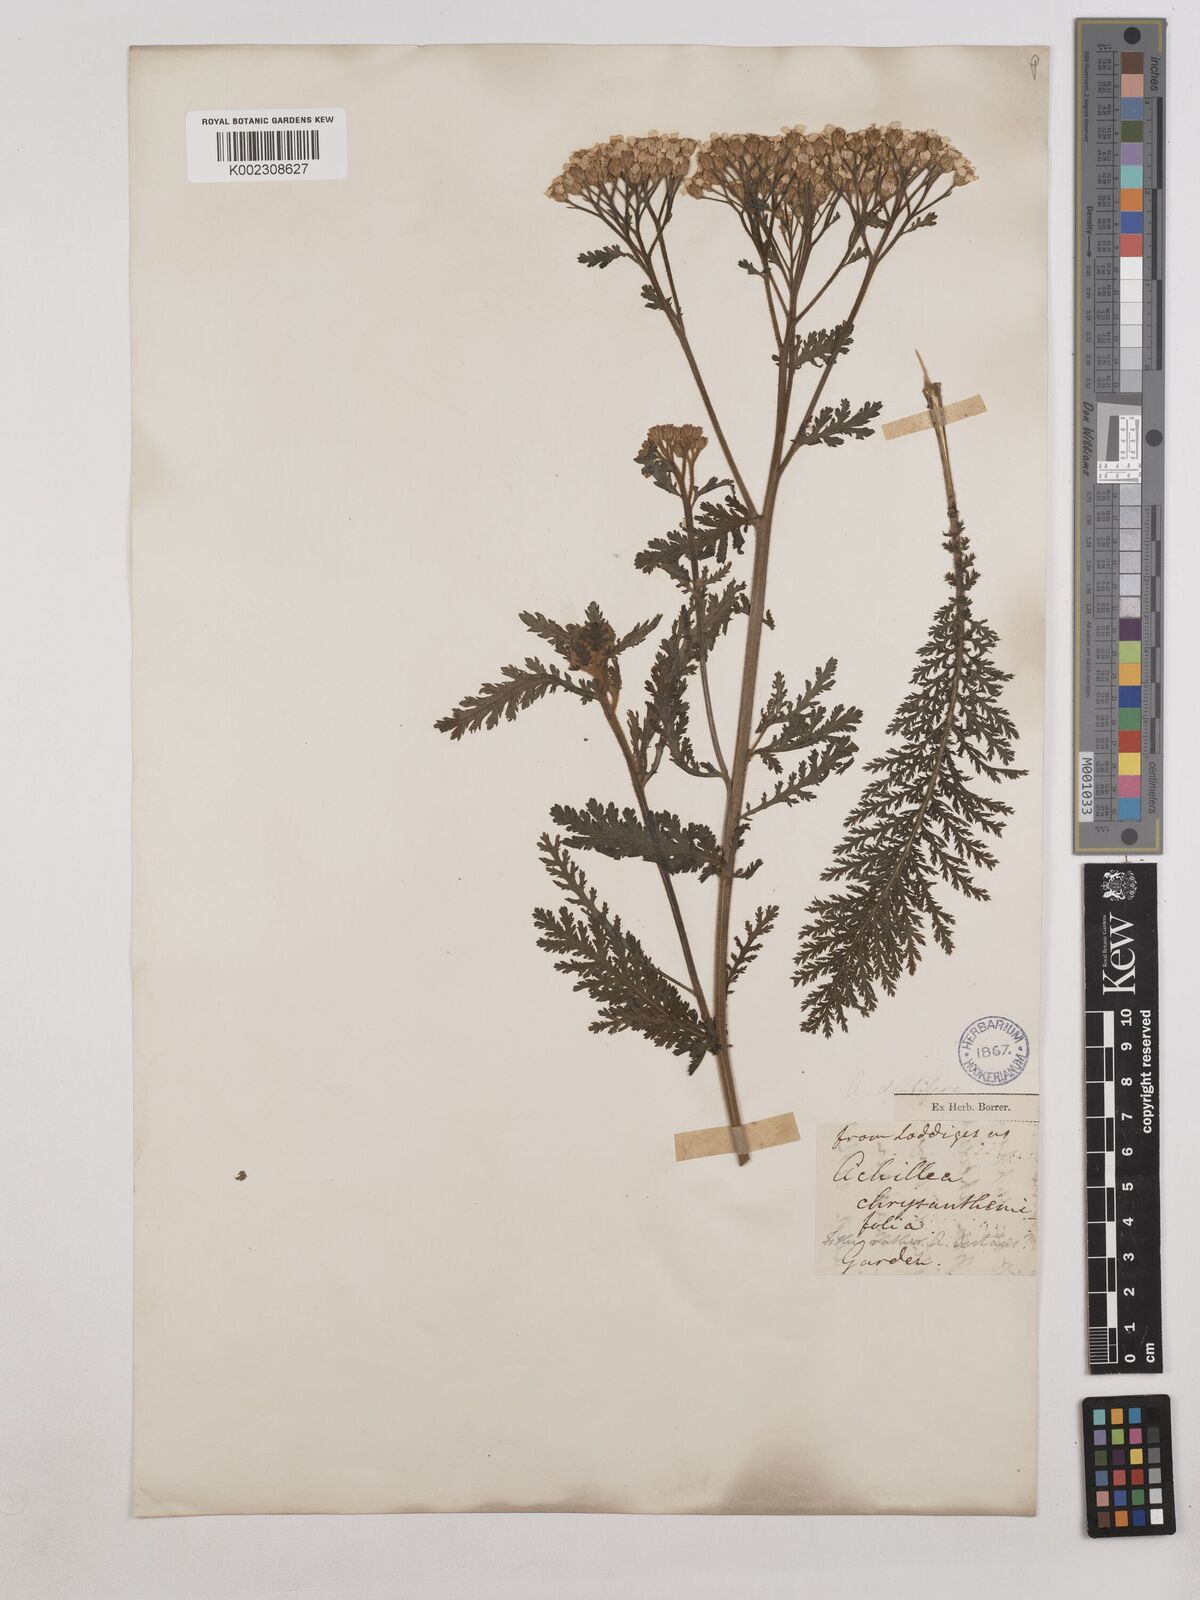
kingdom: Plantae
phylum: Tracheophyta
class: Magnoliopsida
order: Asterales
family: Asteraceae
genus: Achillea
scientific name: Achillea distans
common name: Tall yarrow
